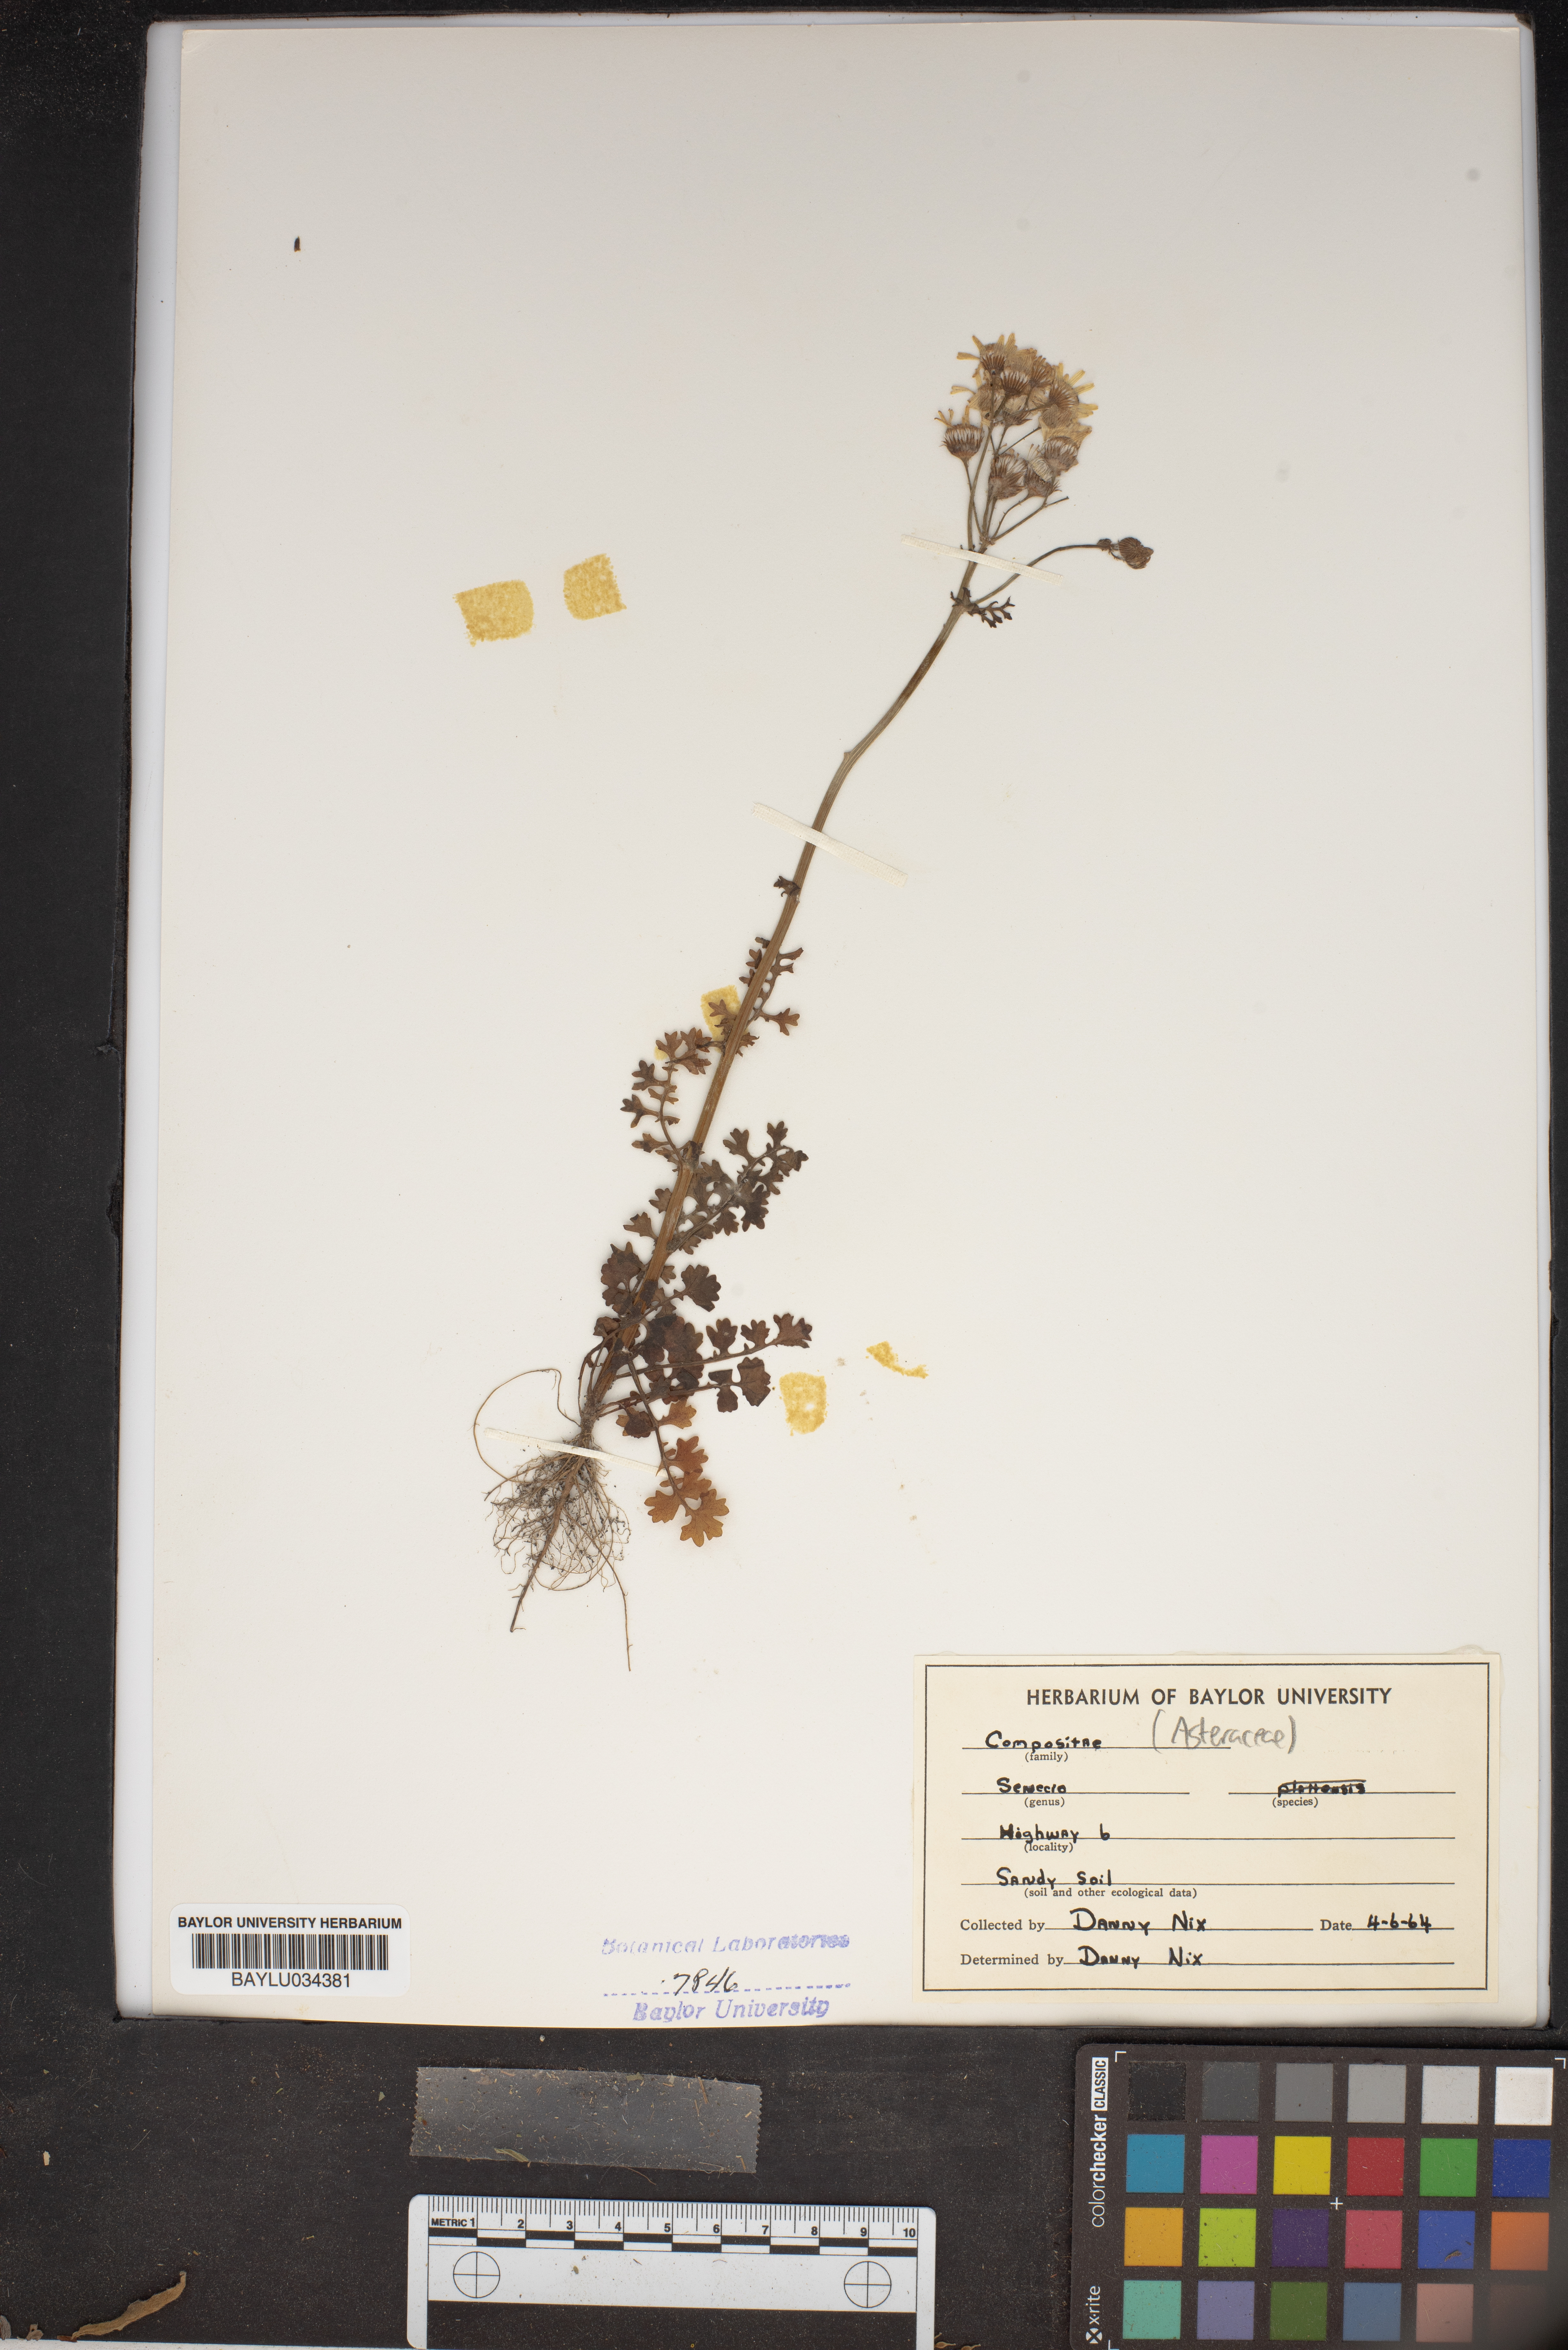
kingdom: Plantae
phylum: Tracheophyta
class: Magnoliopsida
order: Asterales
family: Asteraceae
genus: Senecio
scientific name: Senecio
